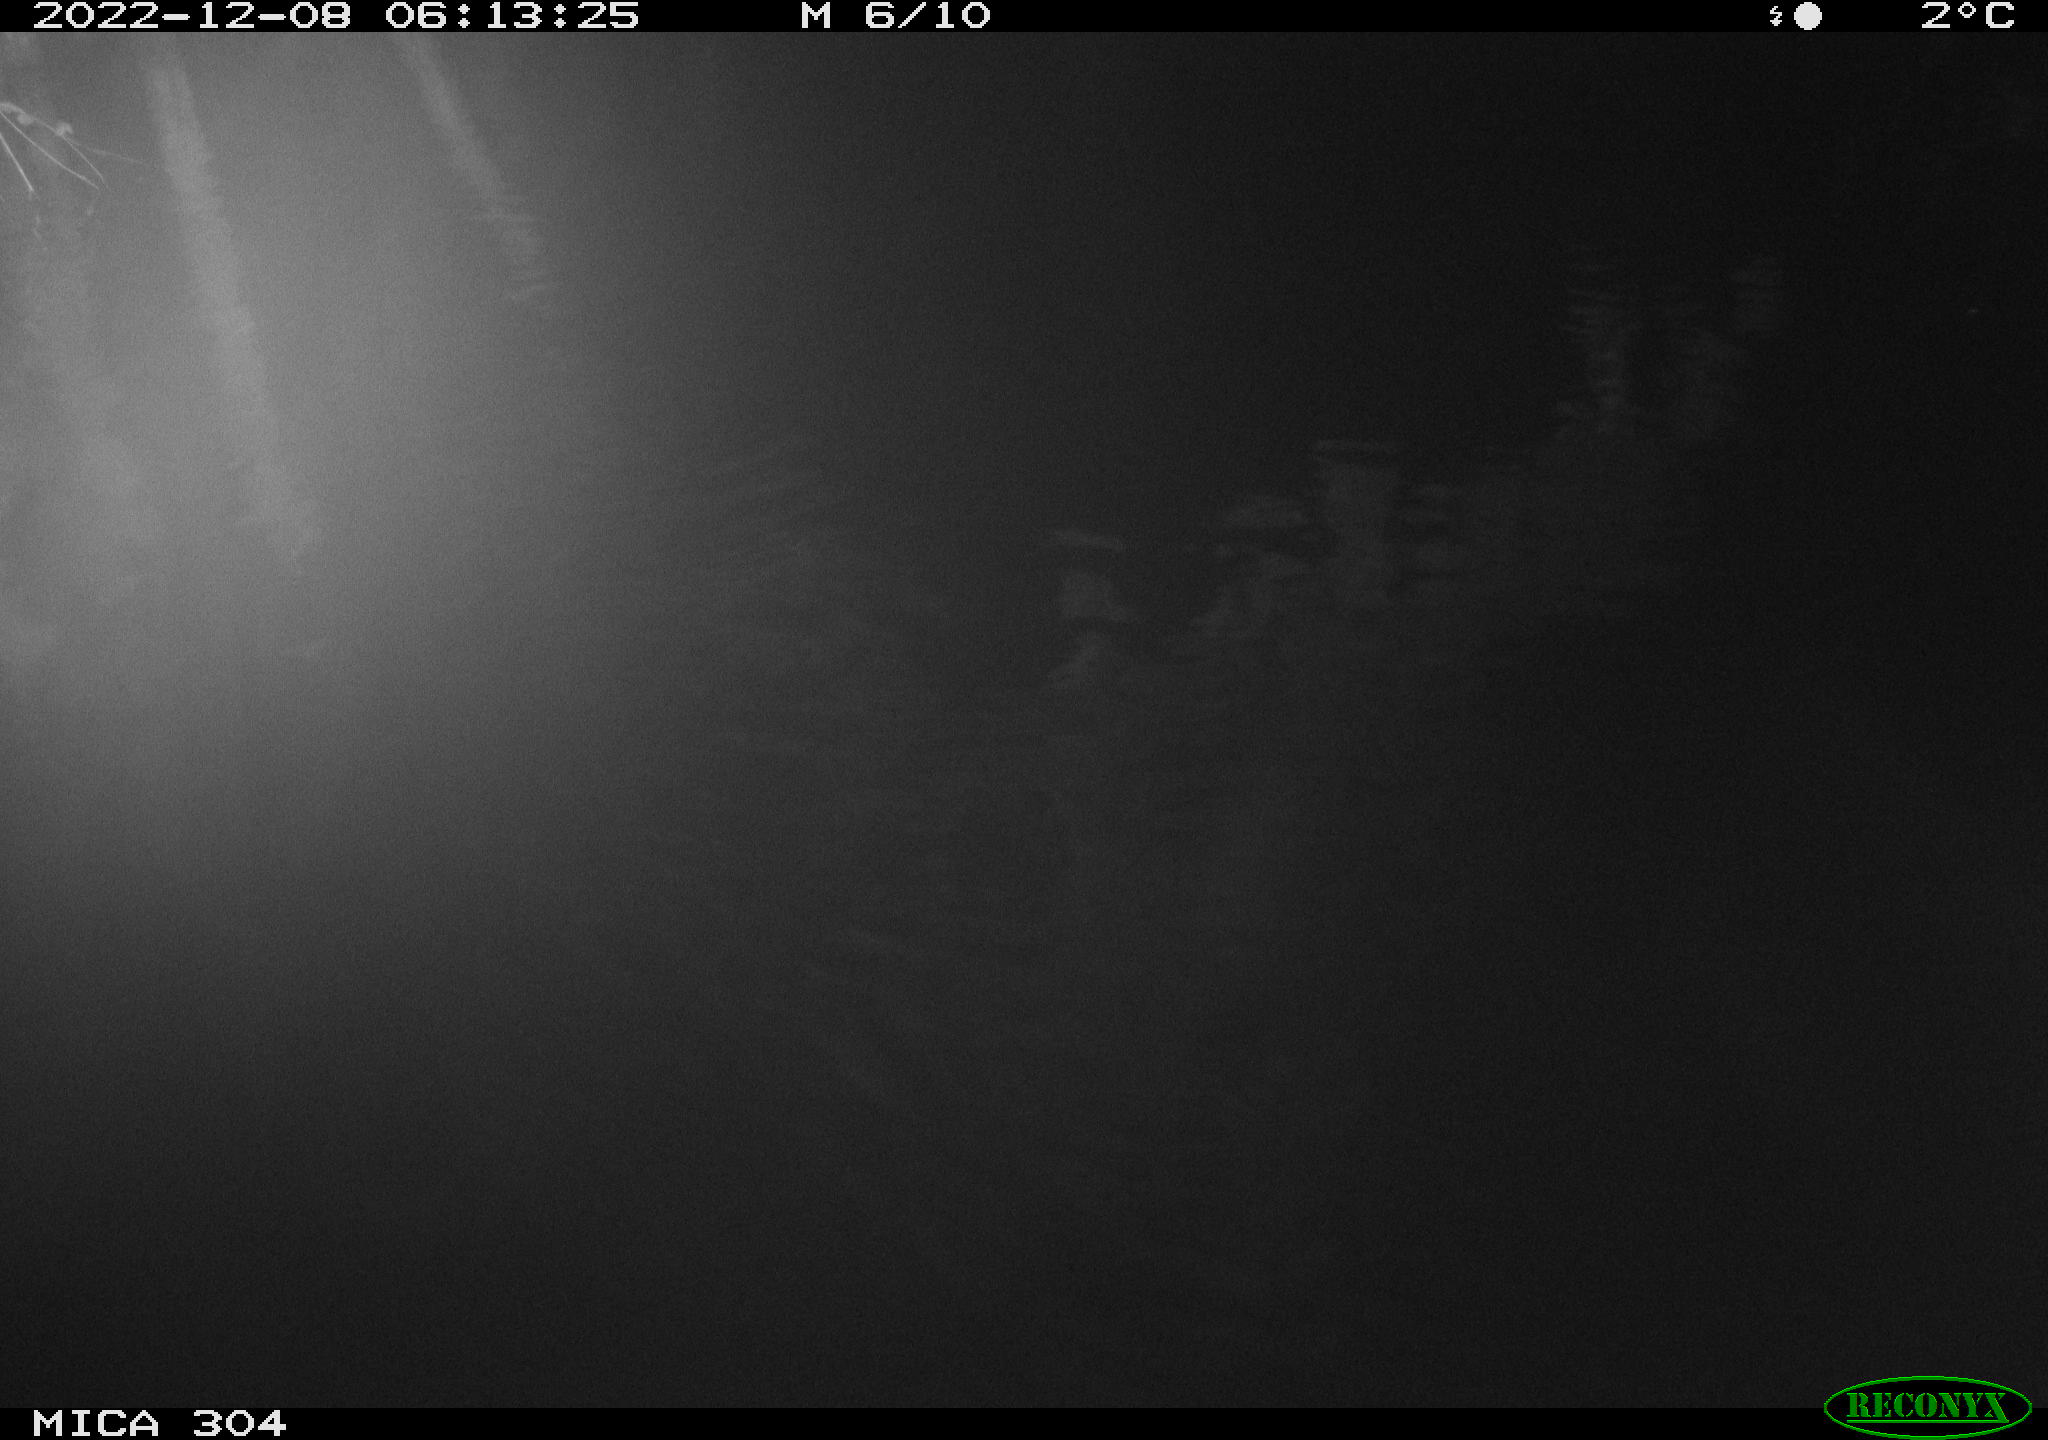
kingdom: Animalia
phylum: Chordata
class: Aves
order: Anseriformes
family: Anatidae
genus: Anas
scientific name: Anas
